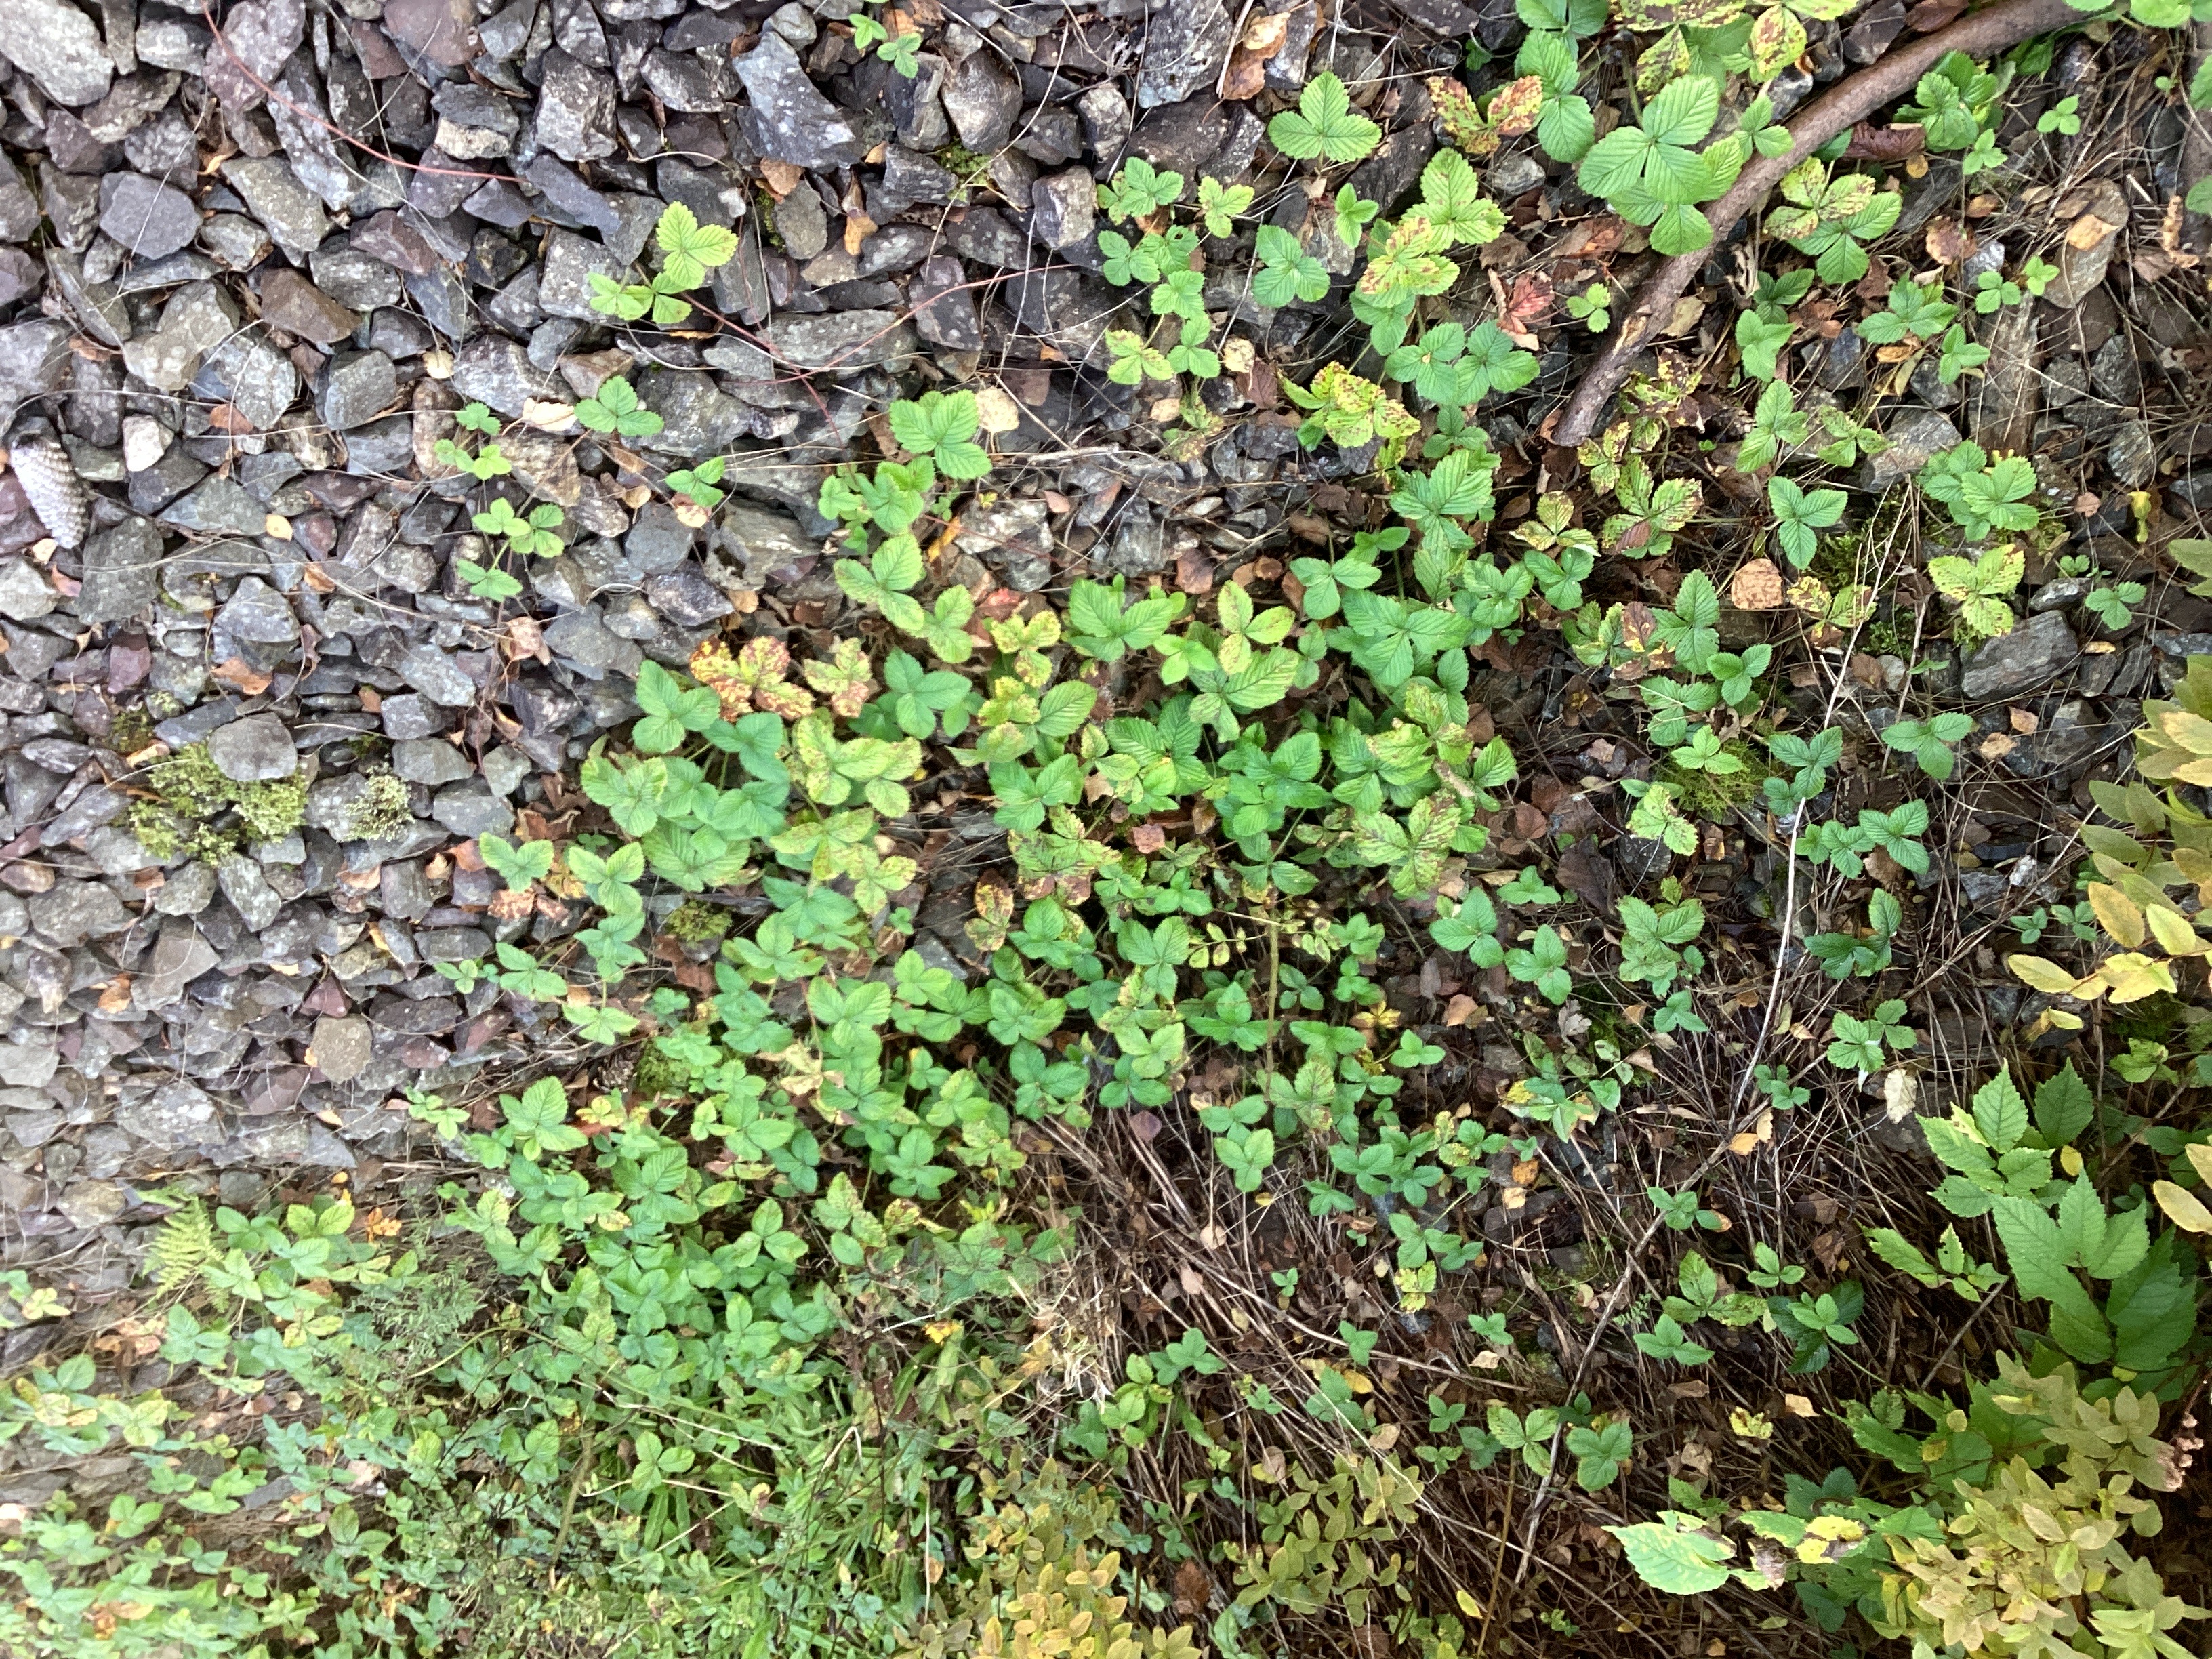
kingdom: Plantae
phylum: Tracheophyta
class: Magnoliopsida
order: Rosales
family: Rosaceae
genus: Fragaria
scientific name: Fragaria moschata
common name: moskusjordbær
